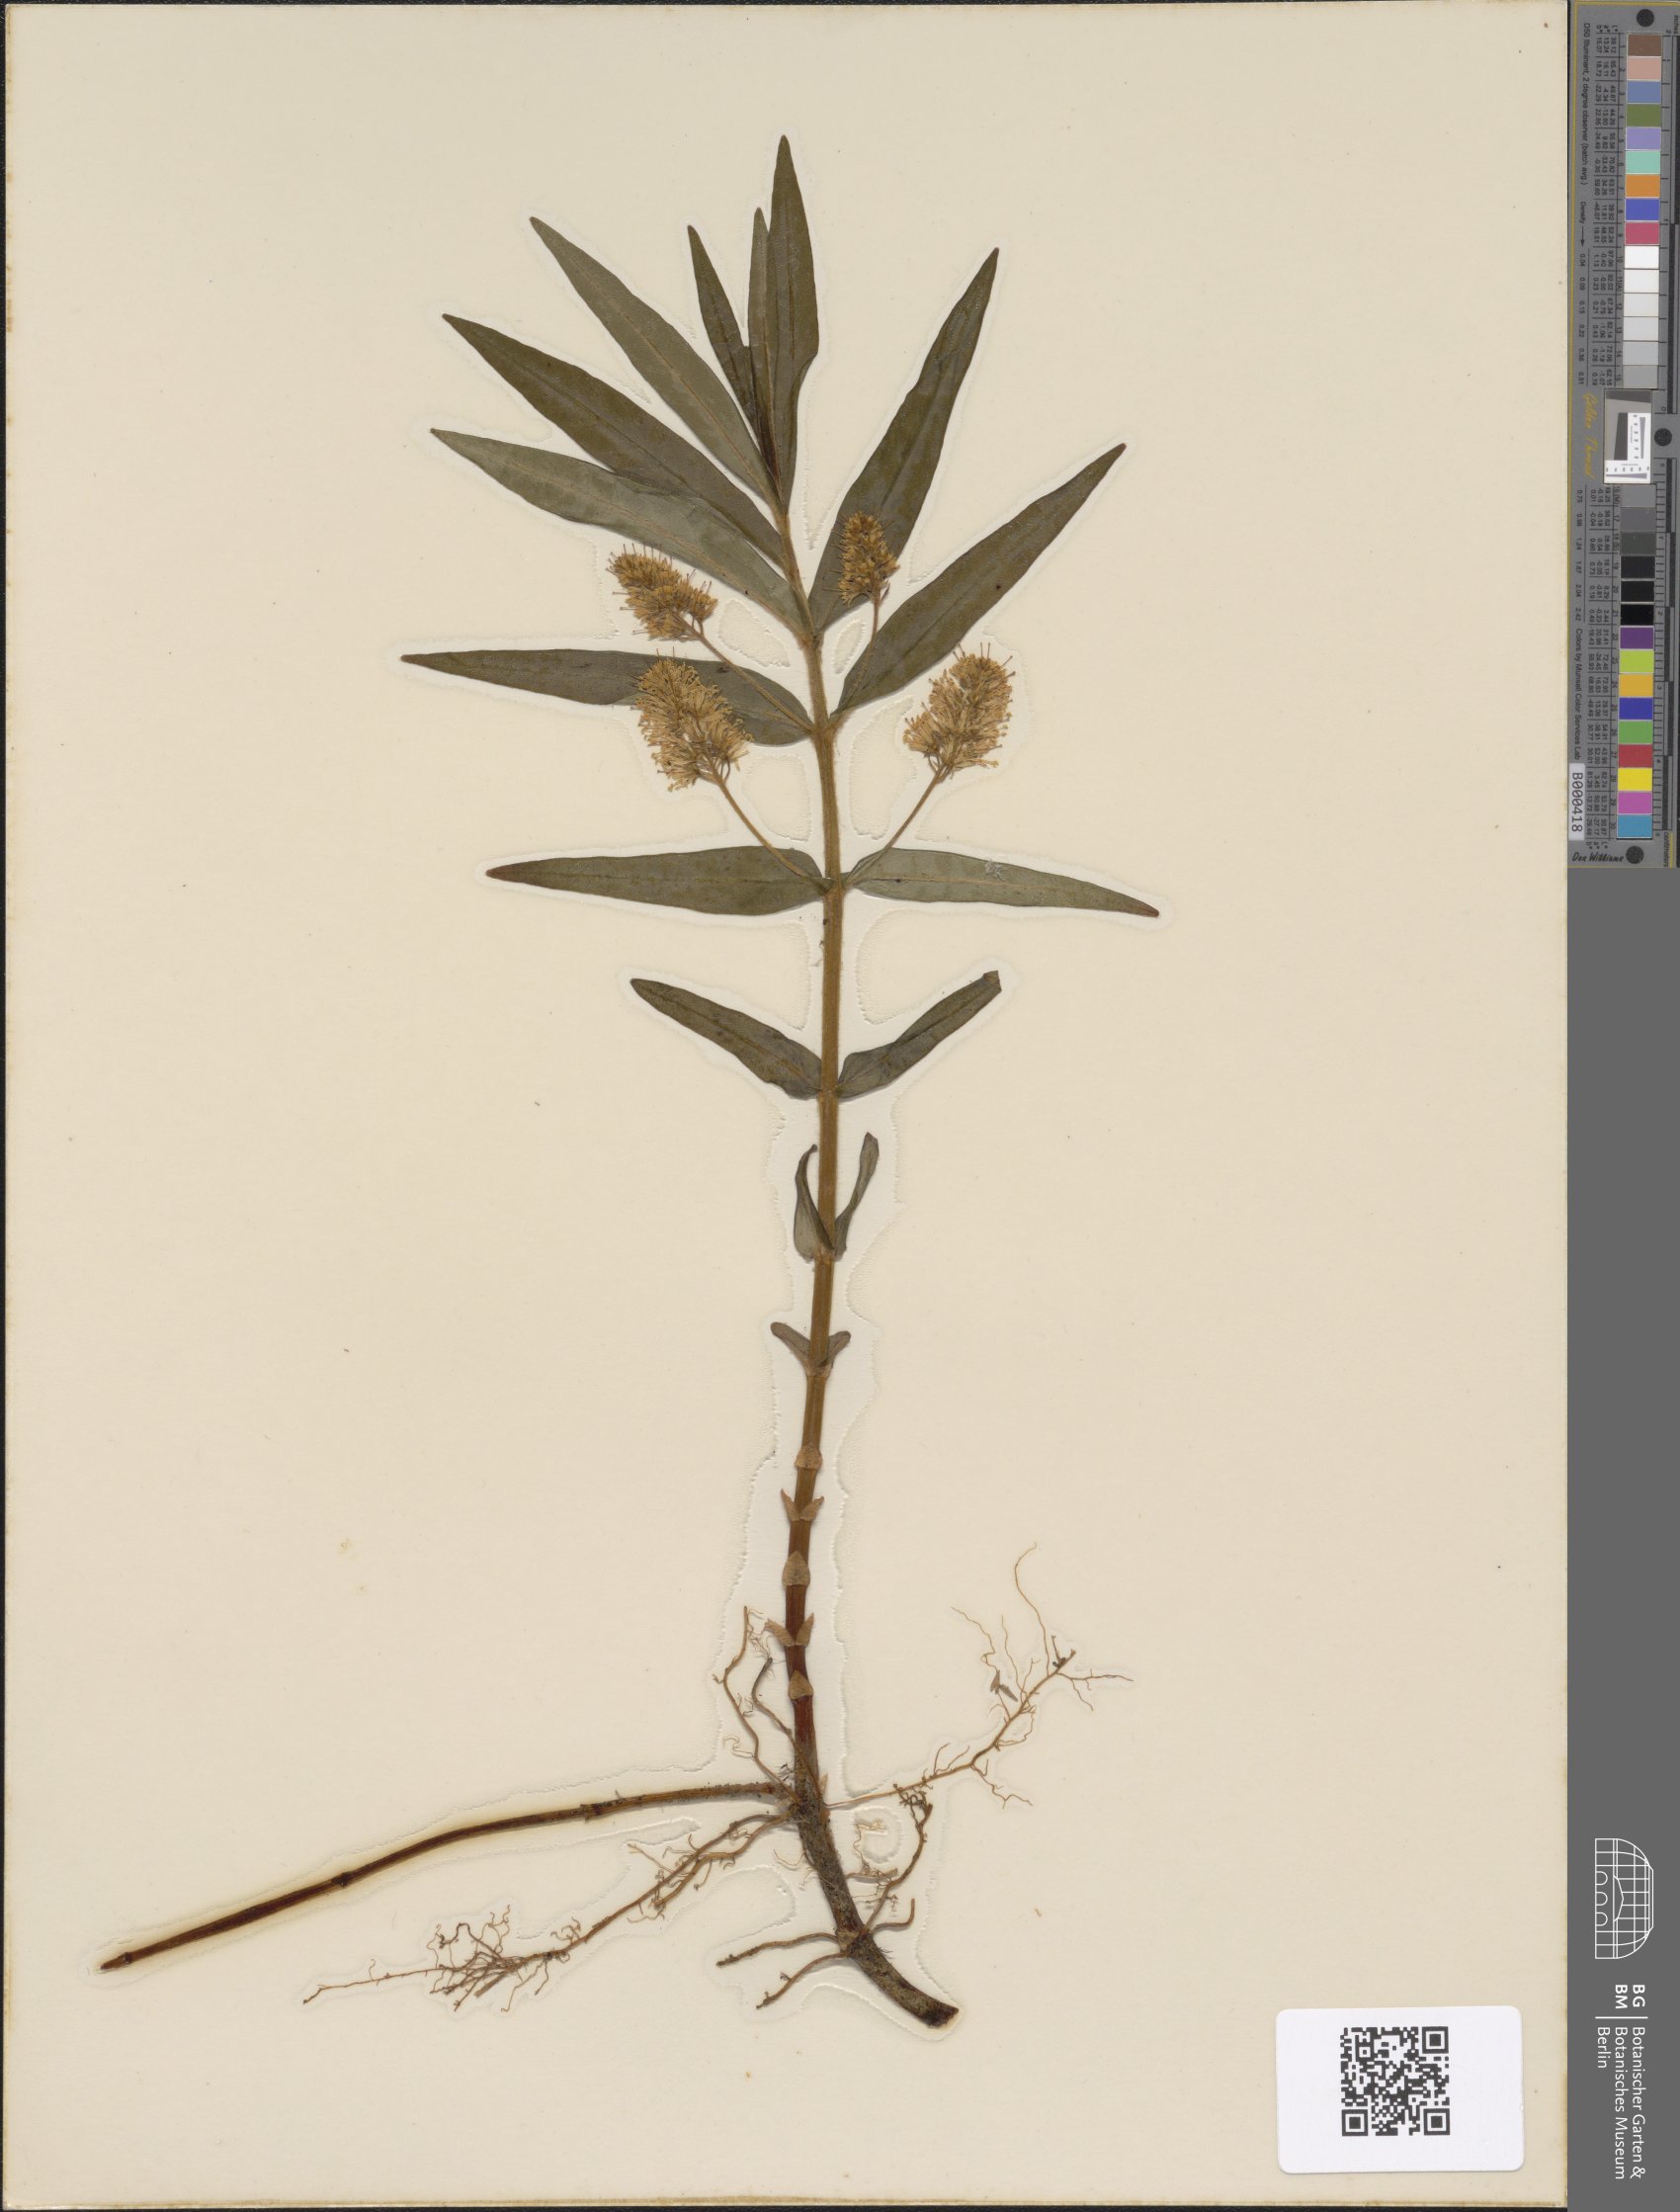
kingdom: Plantae
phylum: Tracheophyta
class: Magnoliopsida
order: Ericales
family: Primulaceae
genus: Lysimachia
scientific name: Lysimachia thyrsiflora
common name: Tufted loosestrife
